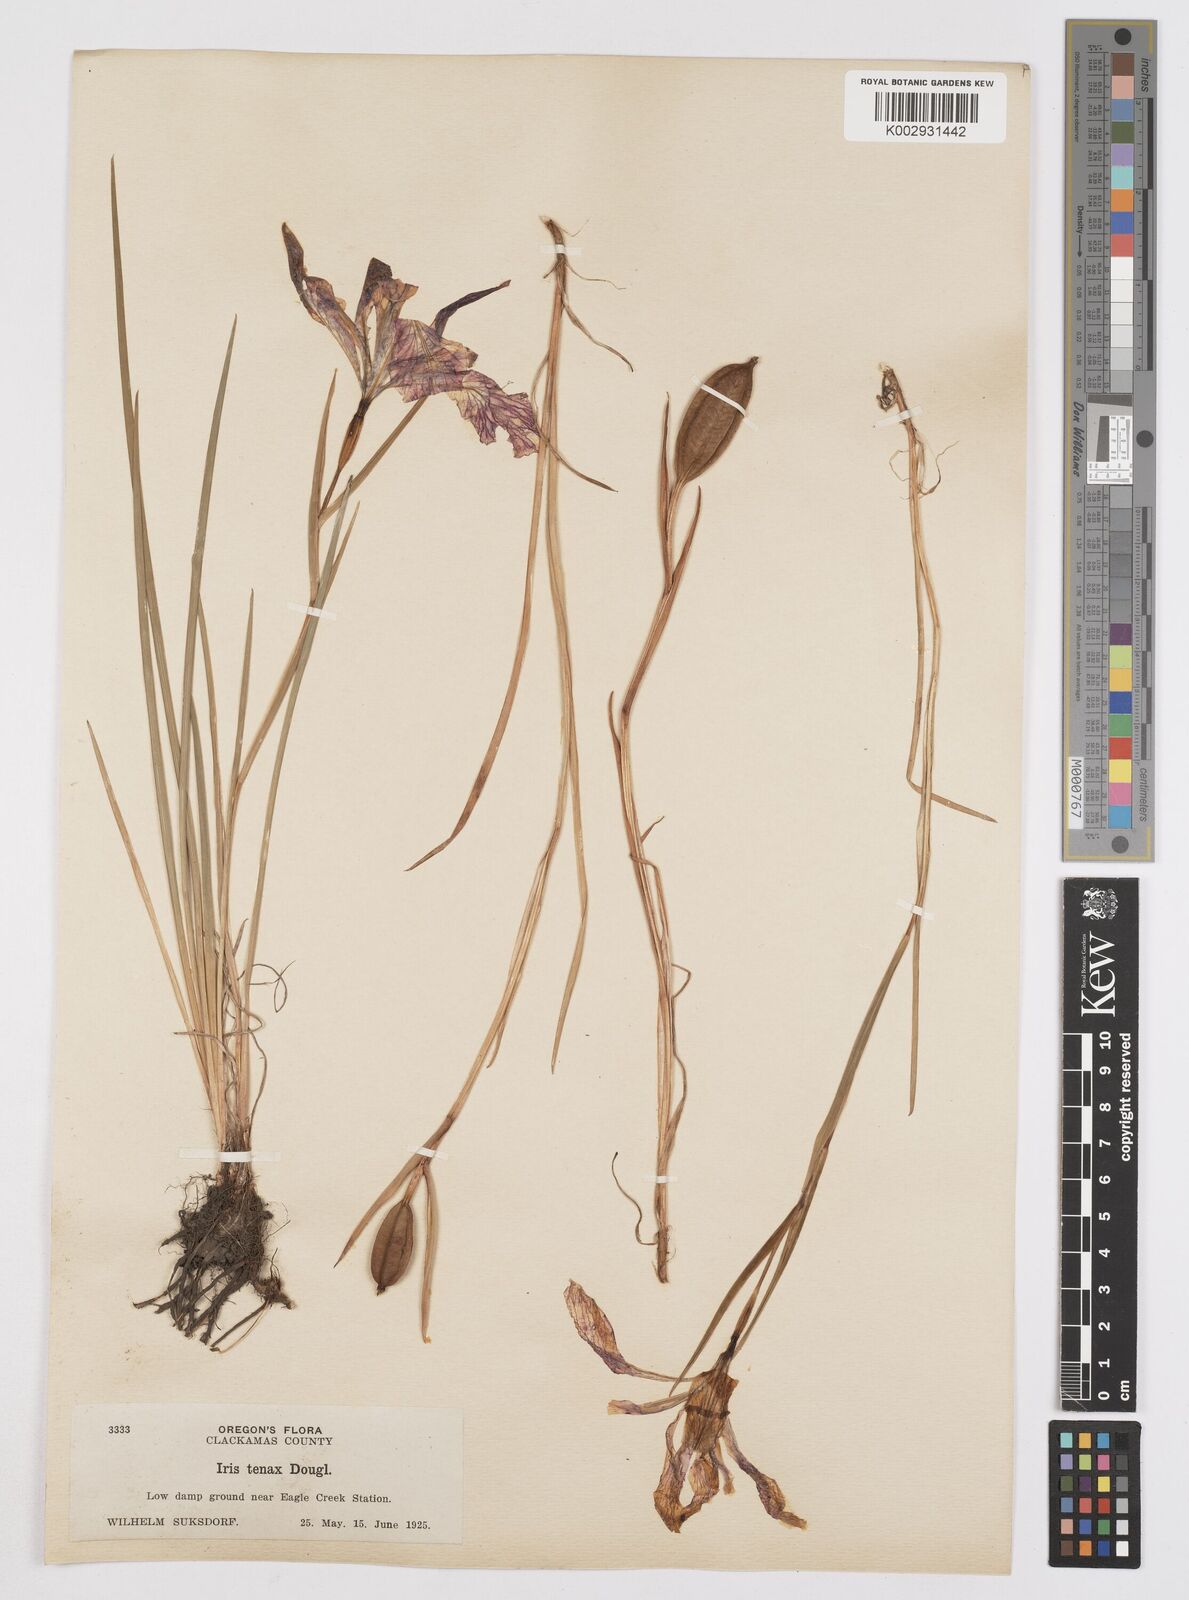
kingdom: Plantae
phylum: Tracheophyta
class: Liliopsida
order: Asparagales
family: Iridaceae
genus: Iris
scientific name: Iris tenax
